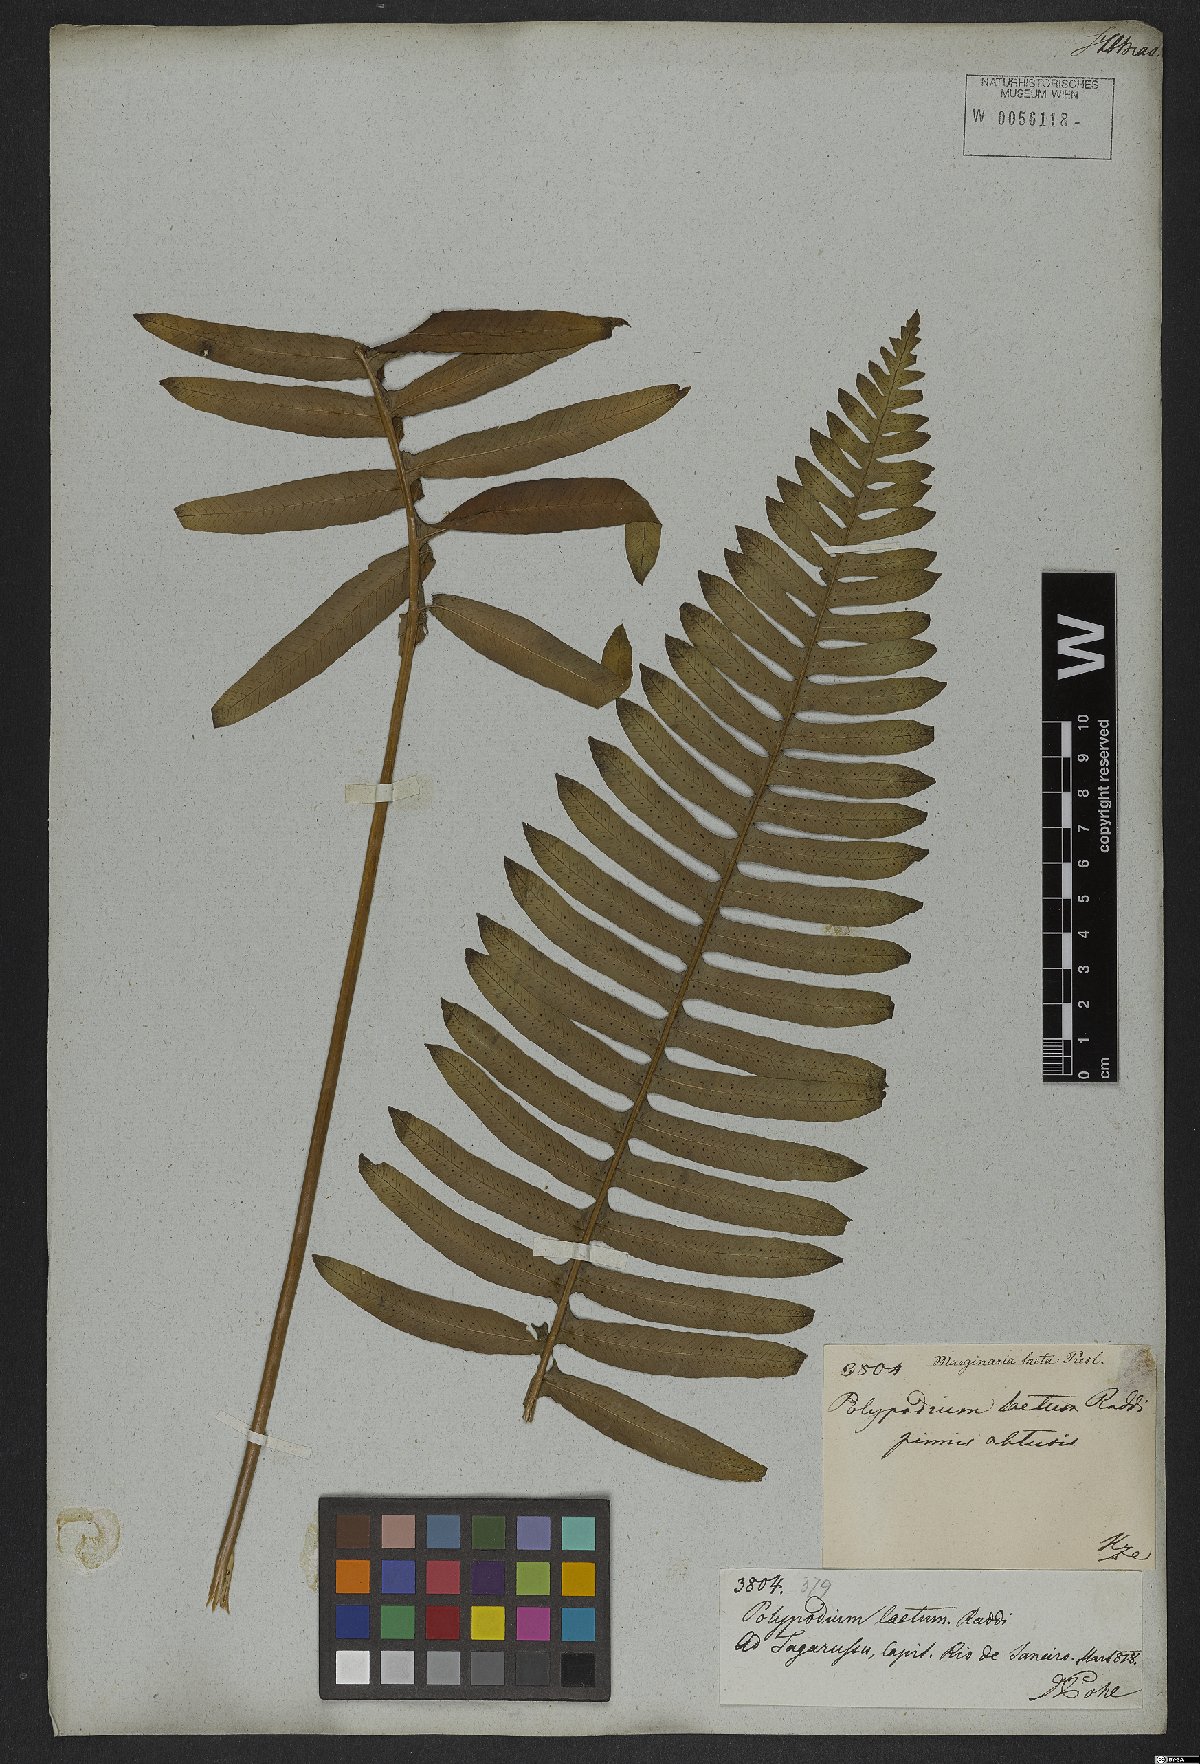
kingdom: Plantae
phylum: Tracheophyta
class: Polypodiopsida
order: Polypodiales
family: Polypodiaceae
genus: Polypodium
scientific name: Polypodium plesiosorum
